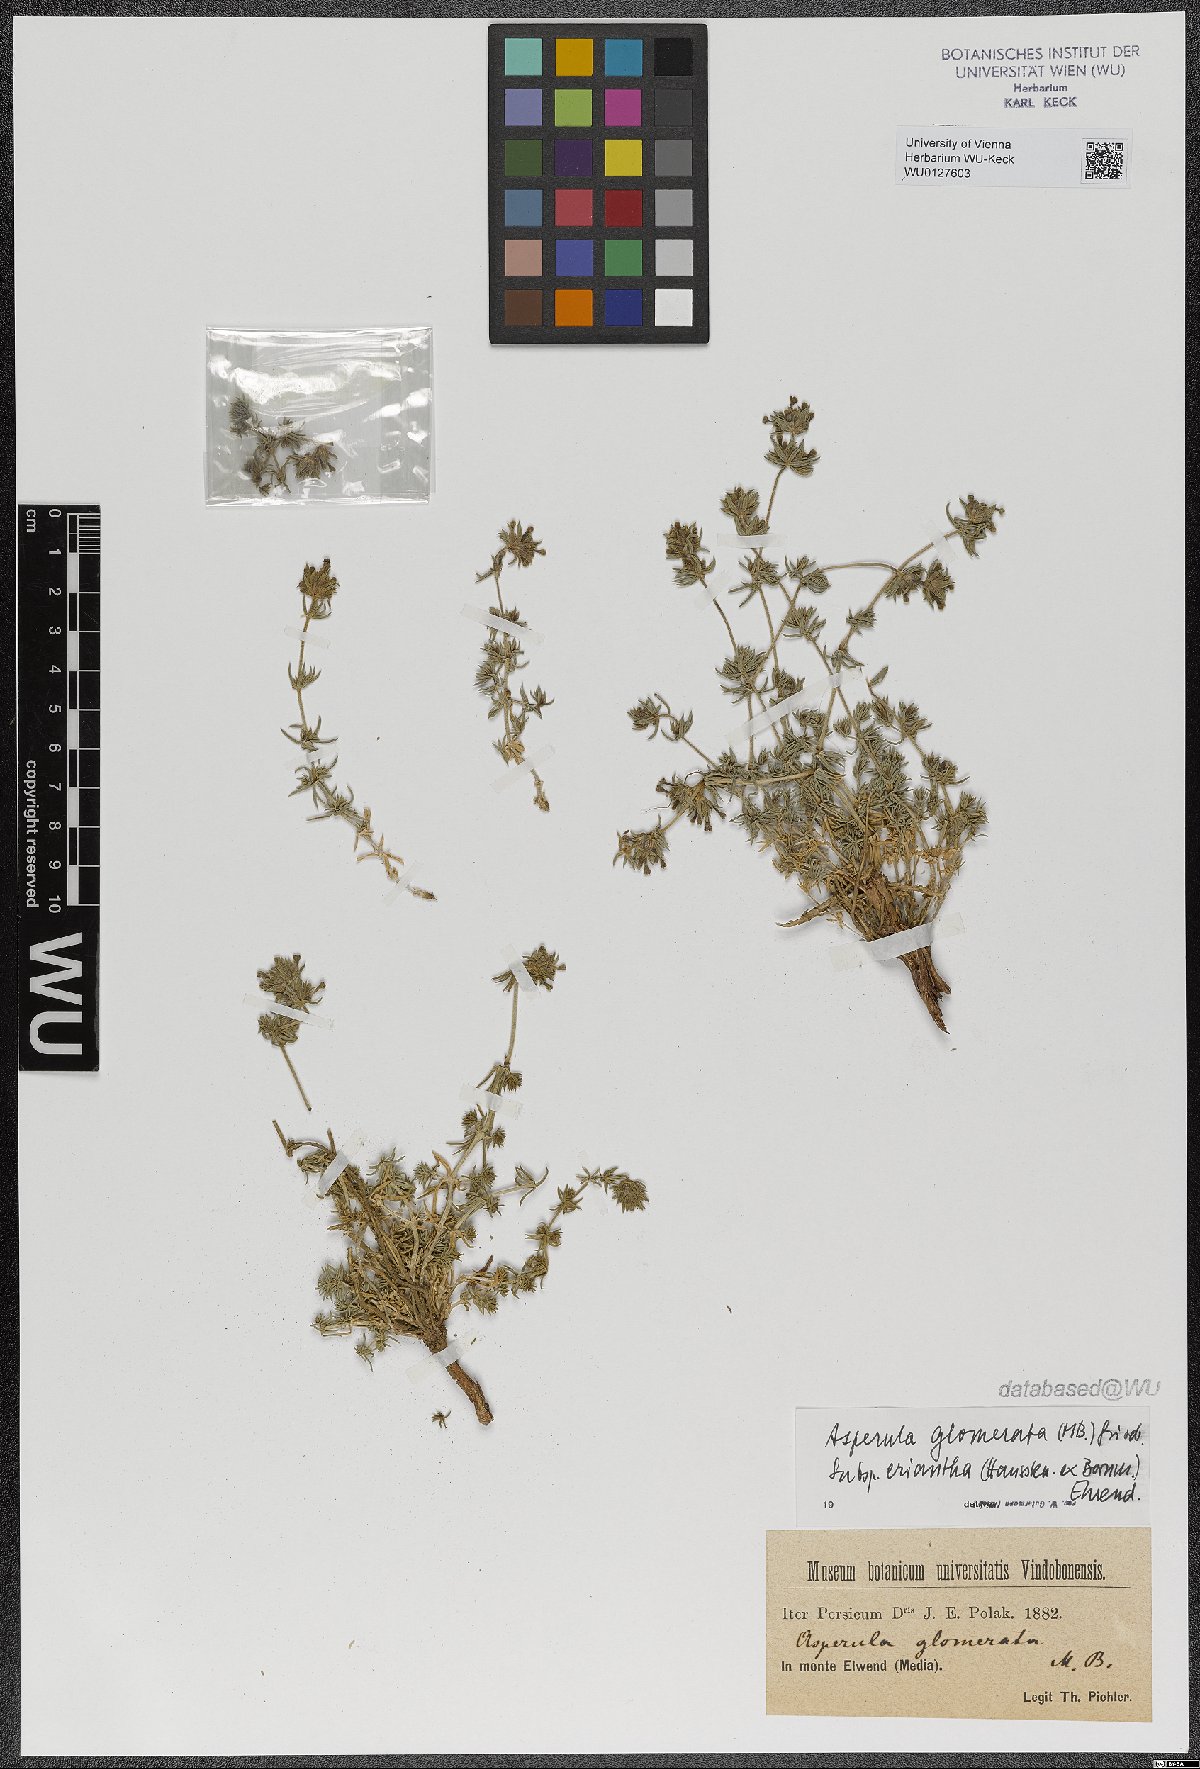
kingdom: Plantae
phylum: Tracheophyta
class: Magnoliopsida
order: Gentianales
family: Rubiaceae
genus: Asperula
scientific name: Asperula glomerata
